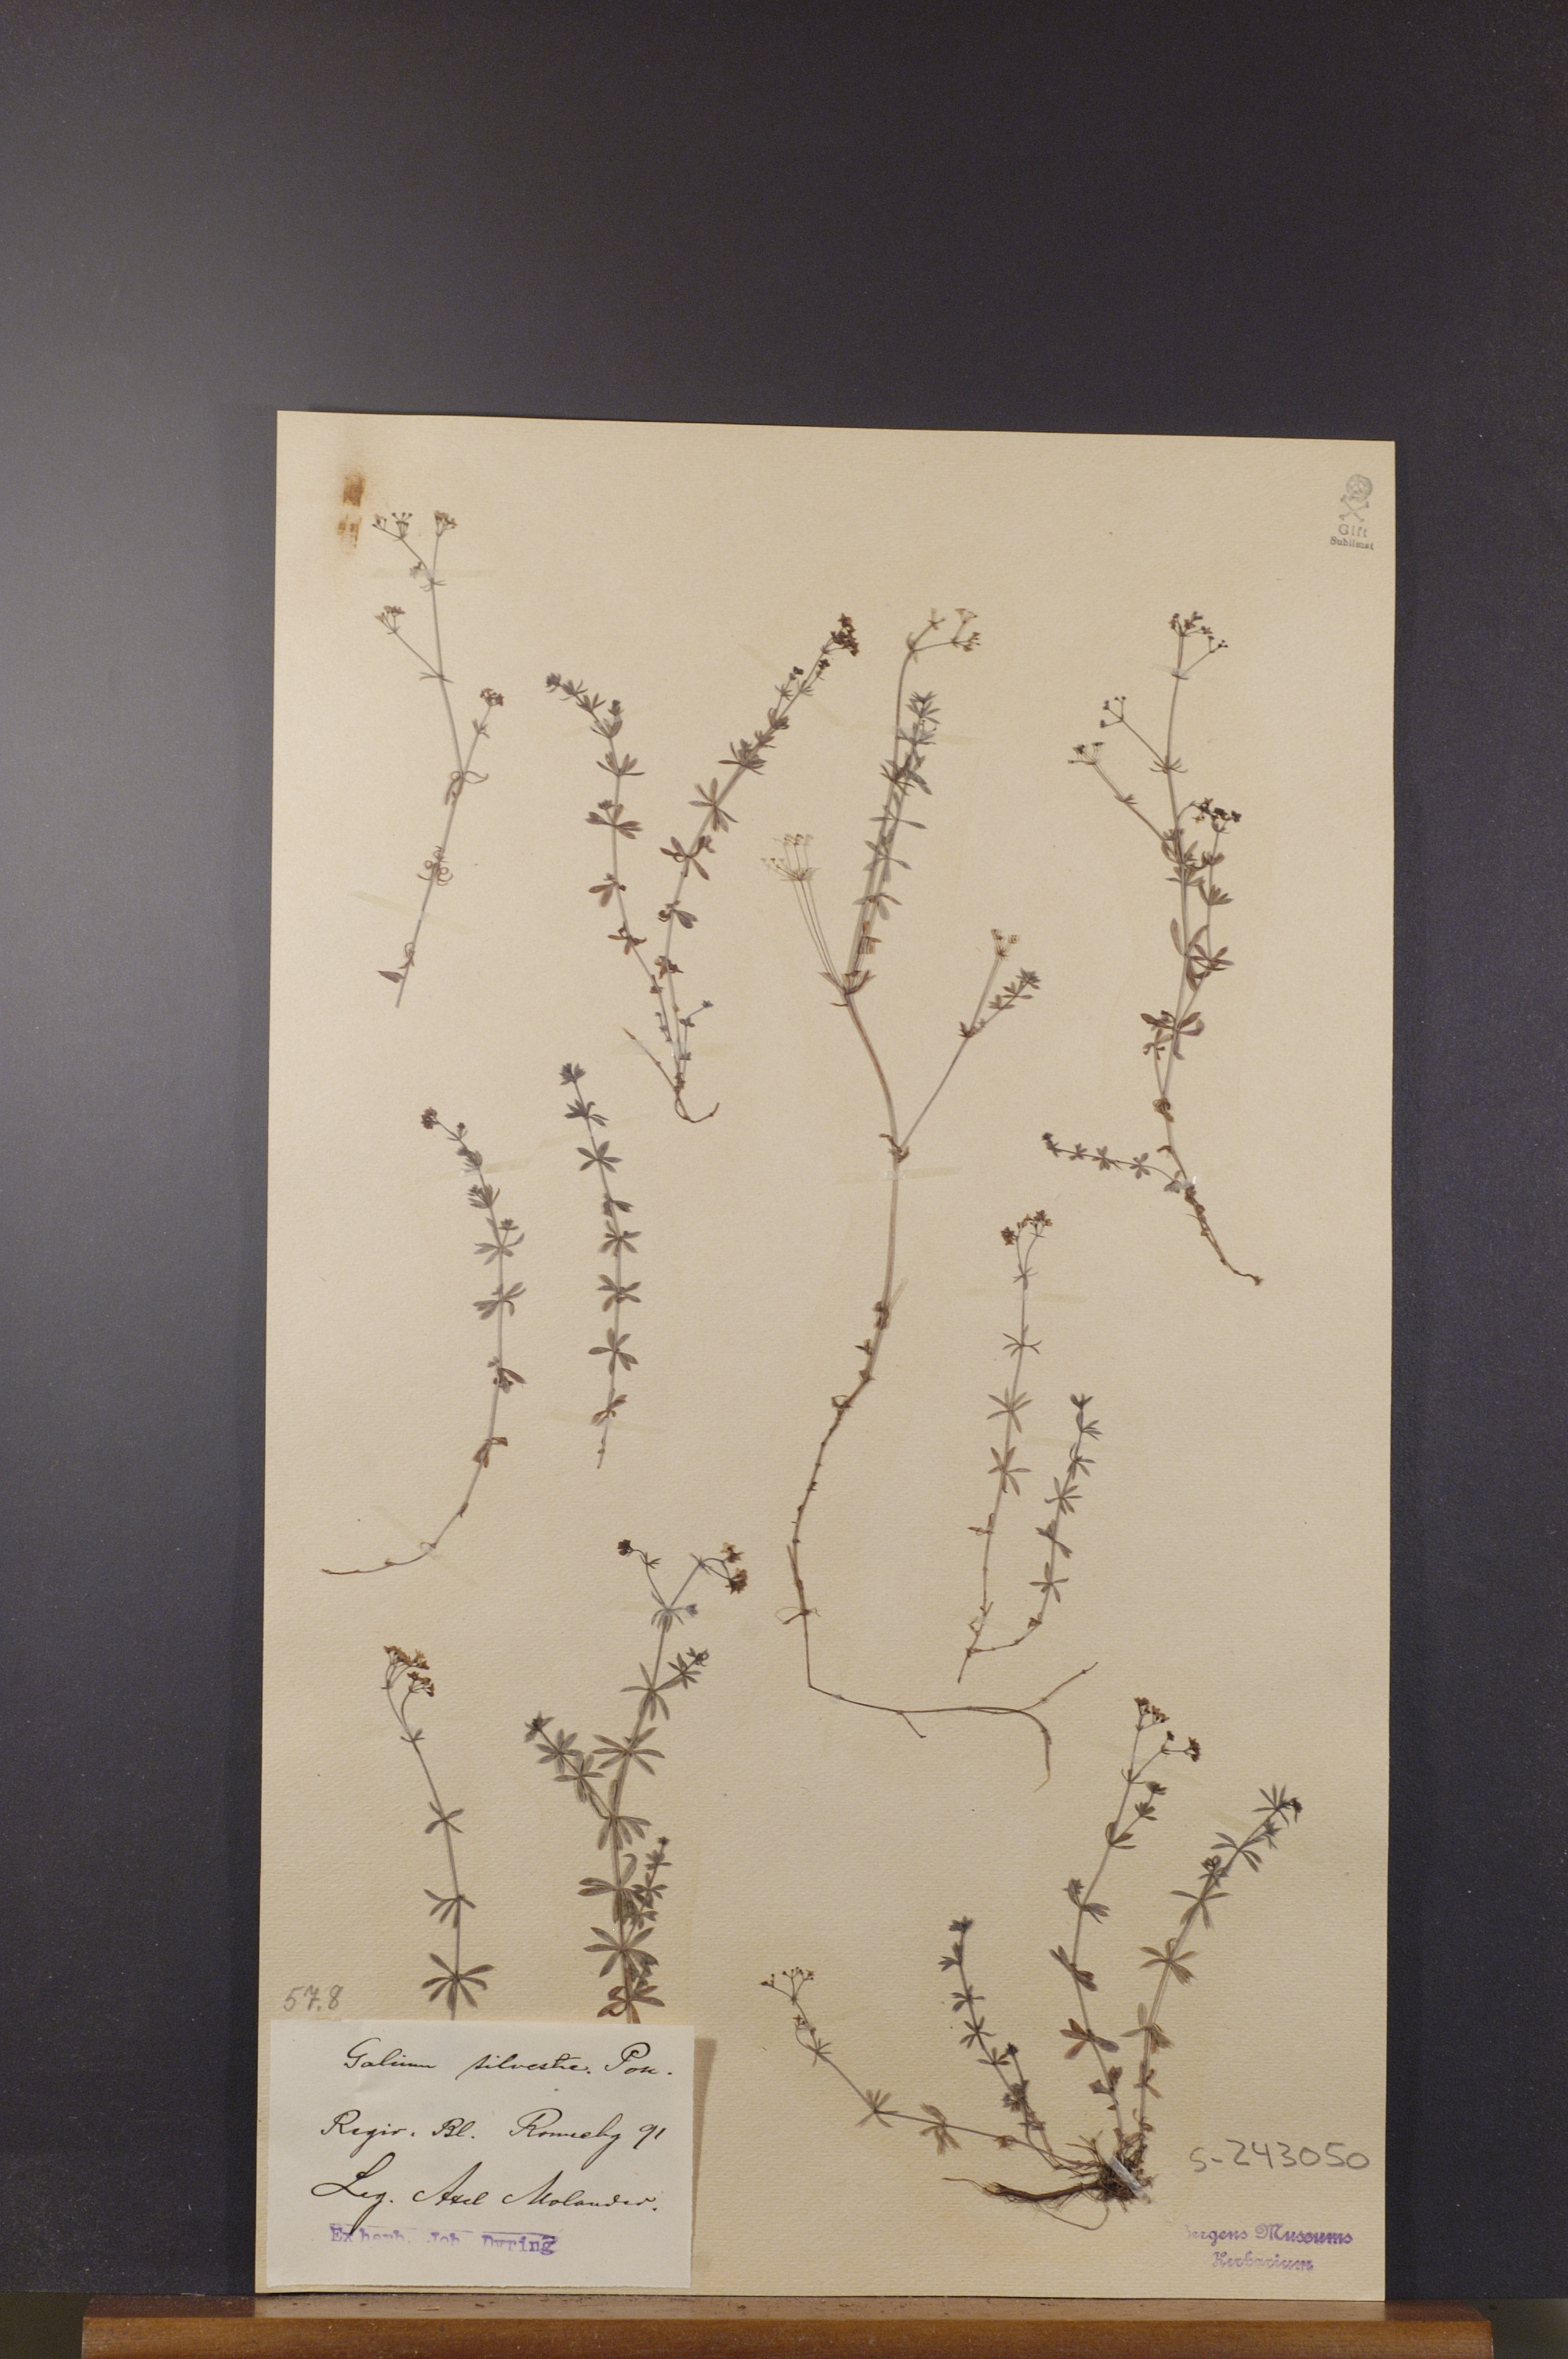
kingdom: Plantae
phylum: Tracheophyta
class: Magnoliopsida
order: Gentianales
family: Rubiaceae
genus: Galium
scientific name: Galium pumilum
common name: Slender bedstraw
